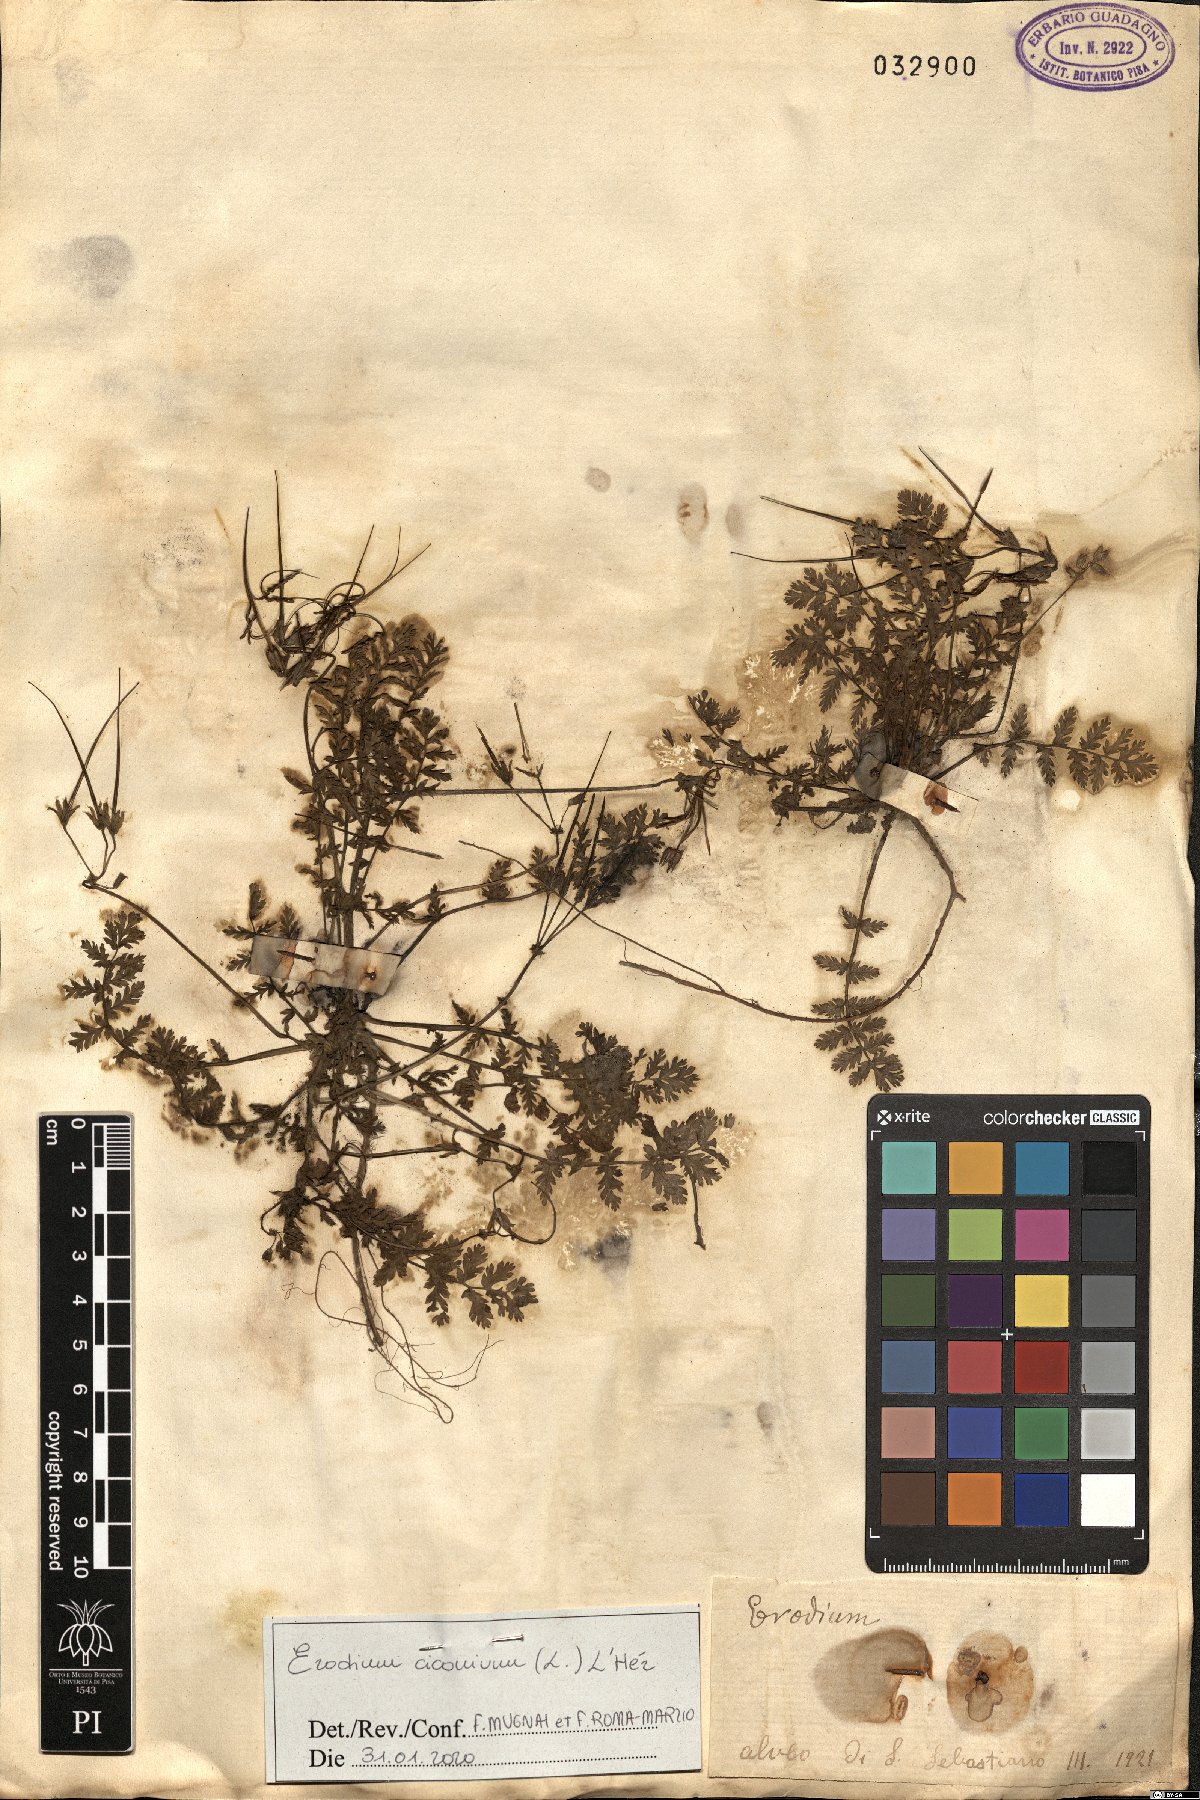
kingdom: Plantae
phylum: Tracheophyta
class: Magnoliopsida
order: Geraniales
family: Geraniaceae
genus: Erodium
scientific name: Erodium ciconium
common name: Common stork's bill
